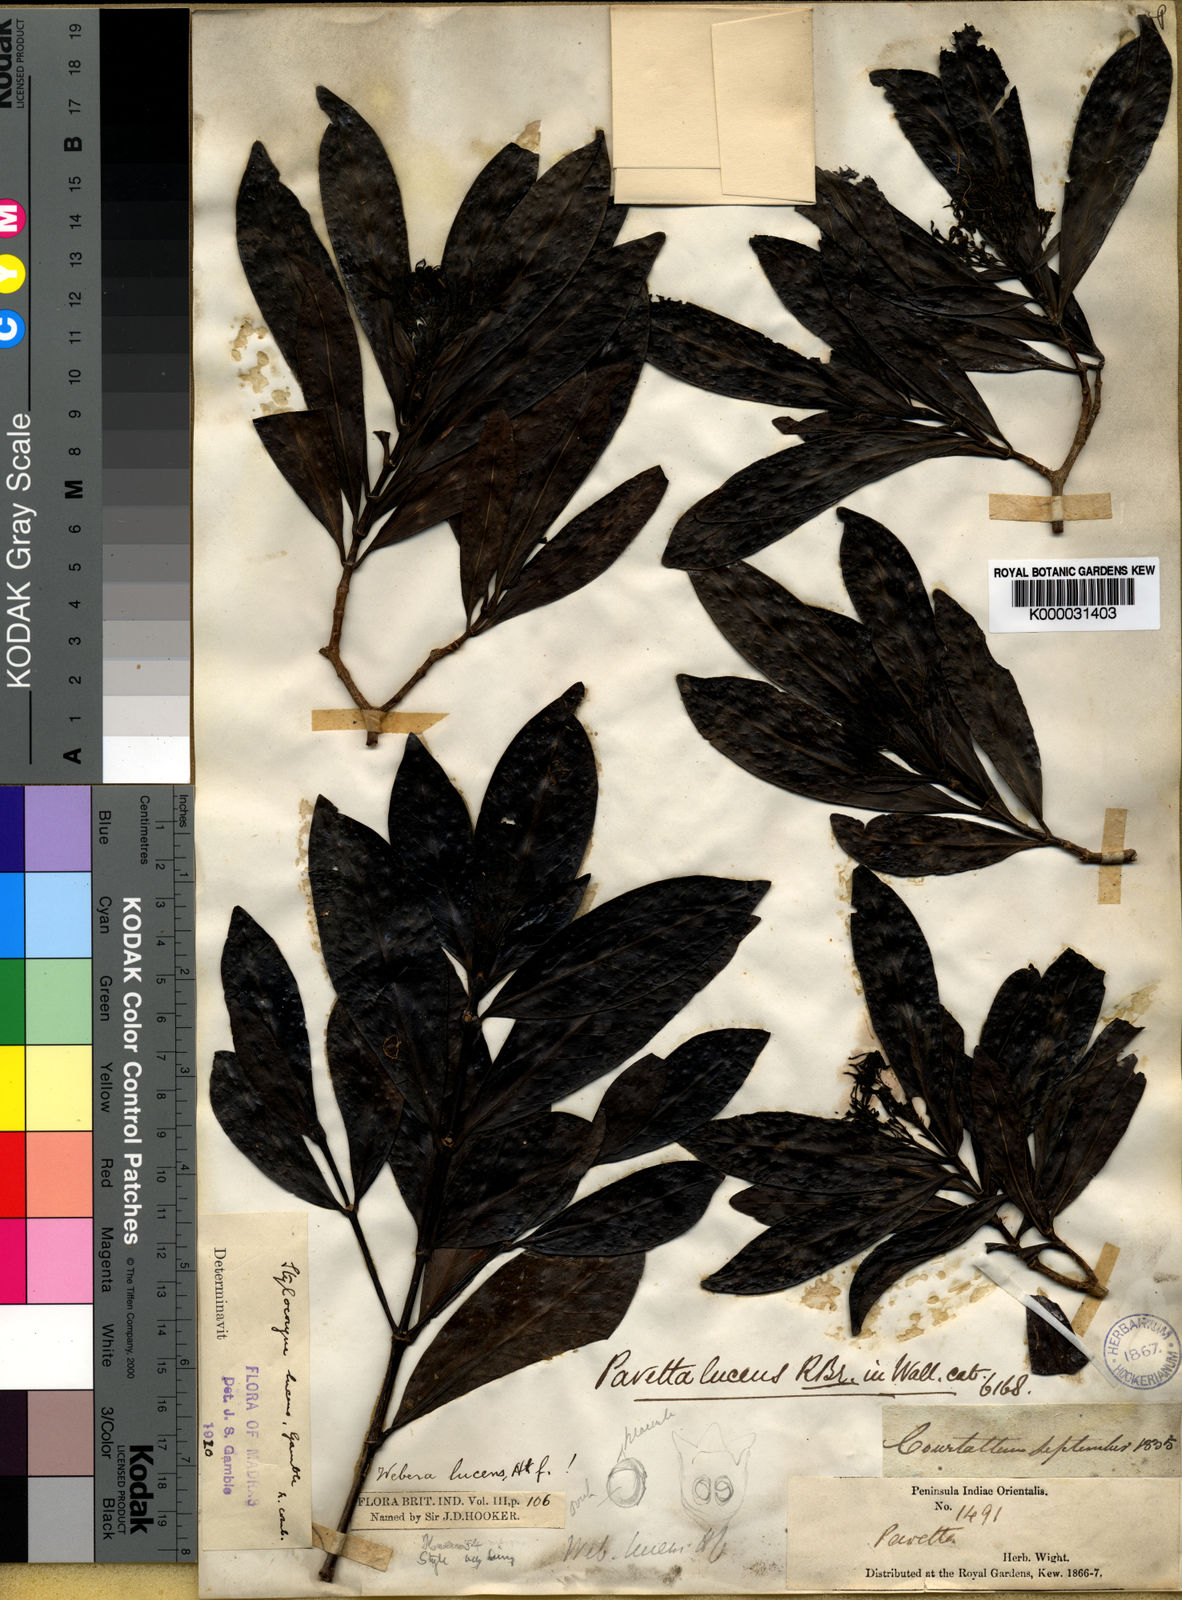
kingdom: Plantae
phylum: Tracheophyta
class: Magnoliopsida
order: Gentianales
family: Rubiaceae
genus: Tarenna
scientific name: Tarenna alpestris
